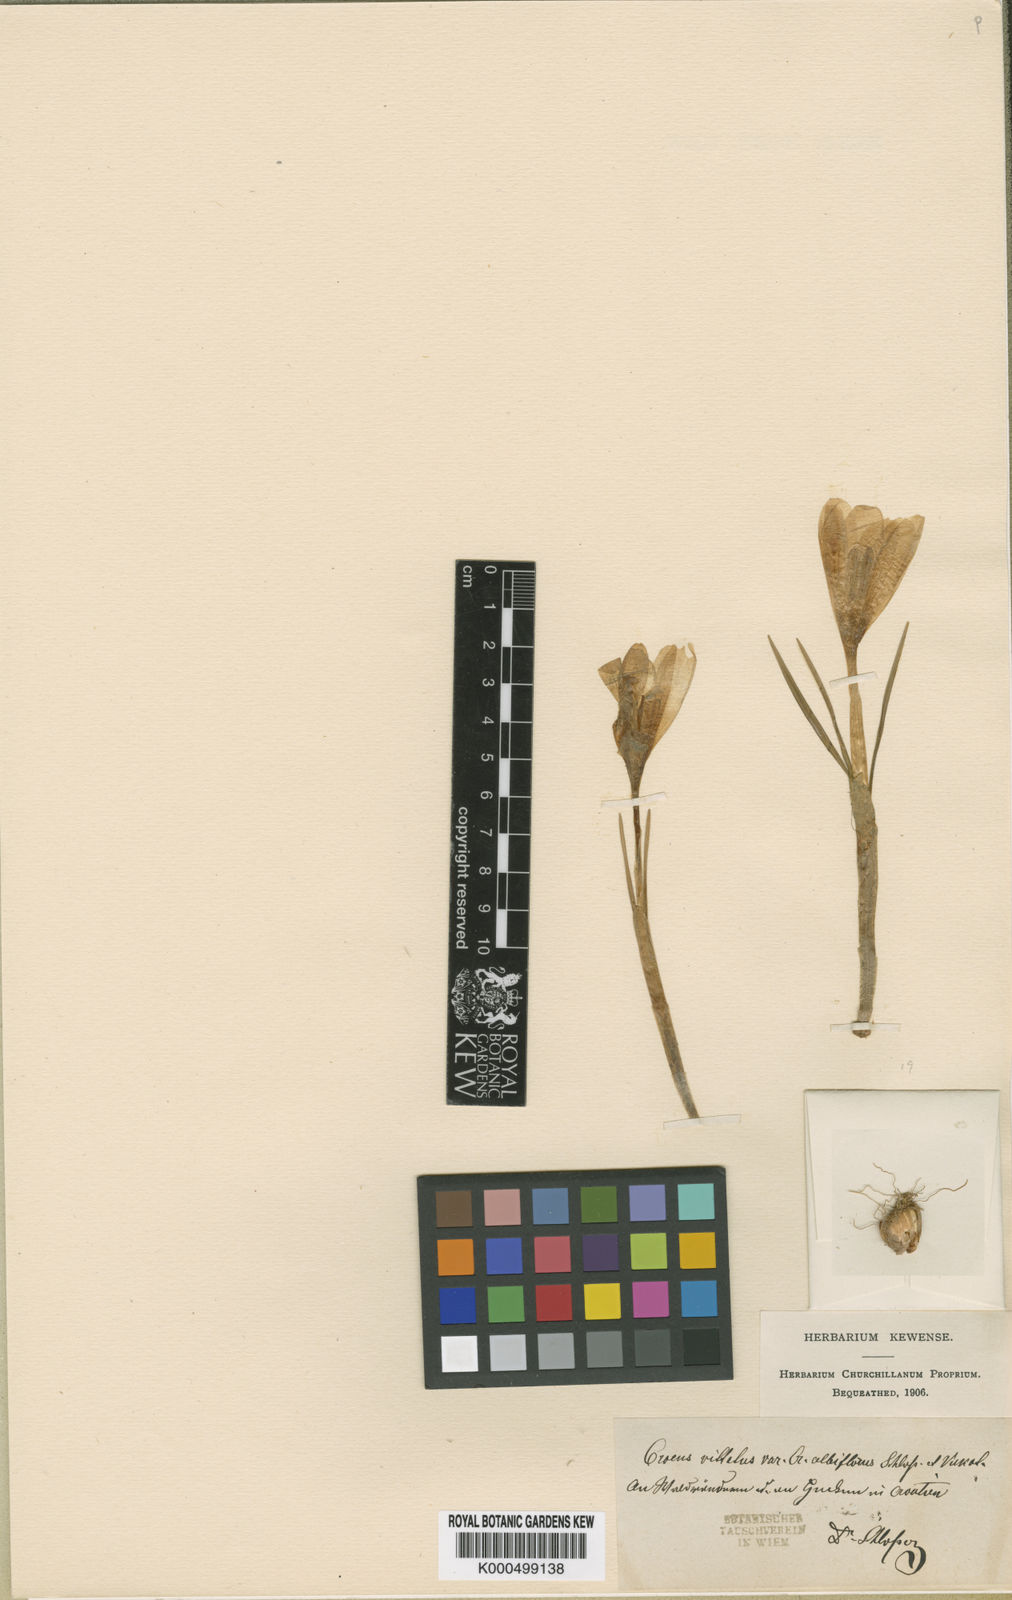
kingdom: Plantae
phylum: Tracheophyta
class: Liliopsida
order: Asparagales
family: Iridaceae
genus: Crocus
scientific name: Crocus
